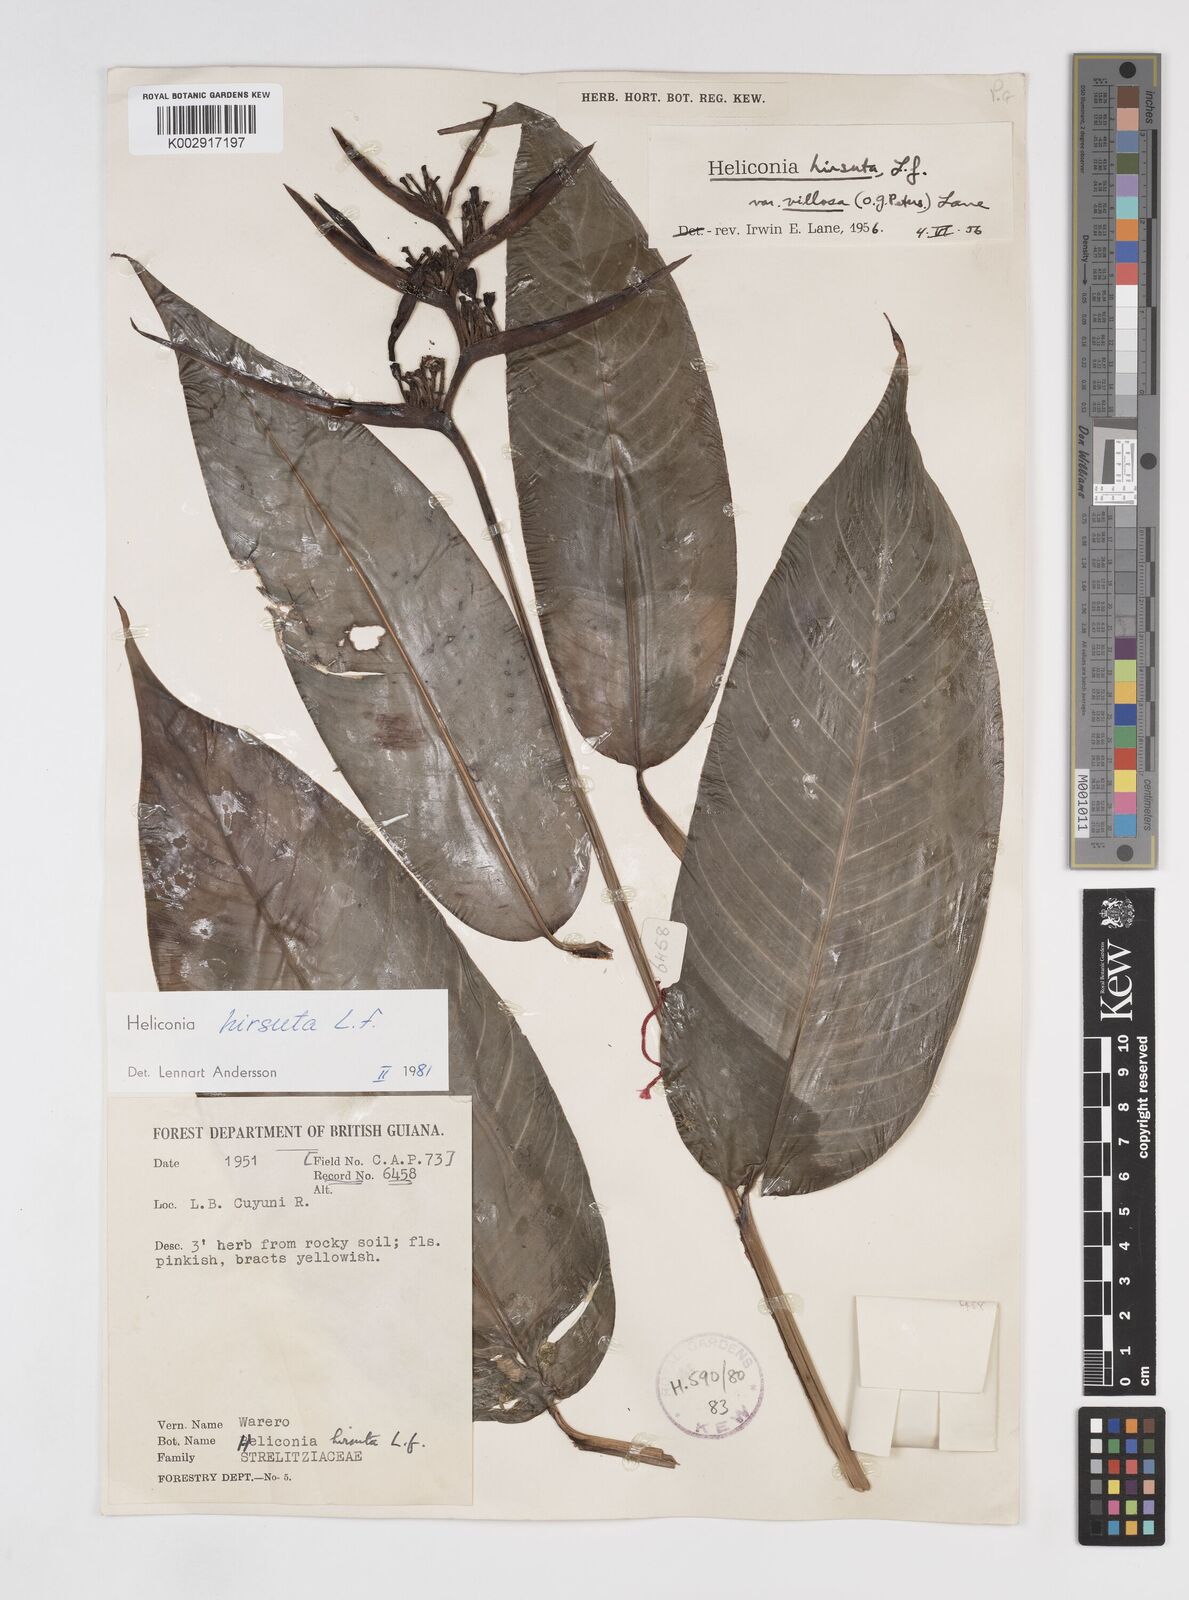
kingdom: Plantae
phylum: Tracheophyta
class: Liliopsida
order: Zingiberales
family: Heliconiaceae
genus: Heliconia
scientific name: Heliconia hirsuta
